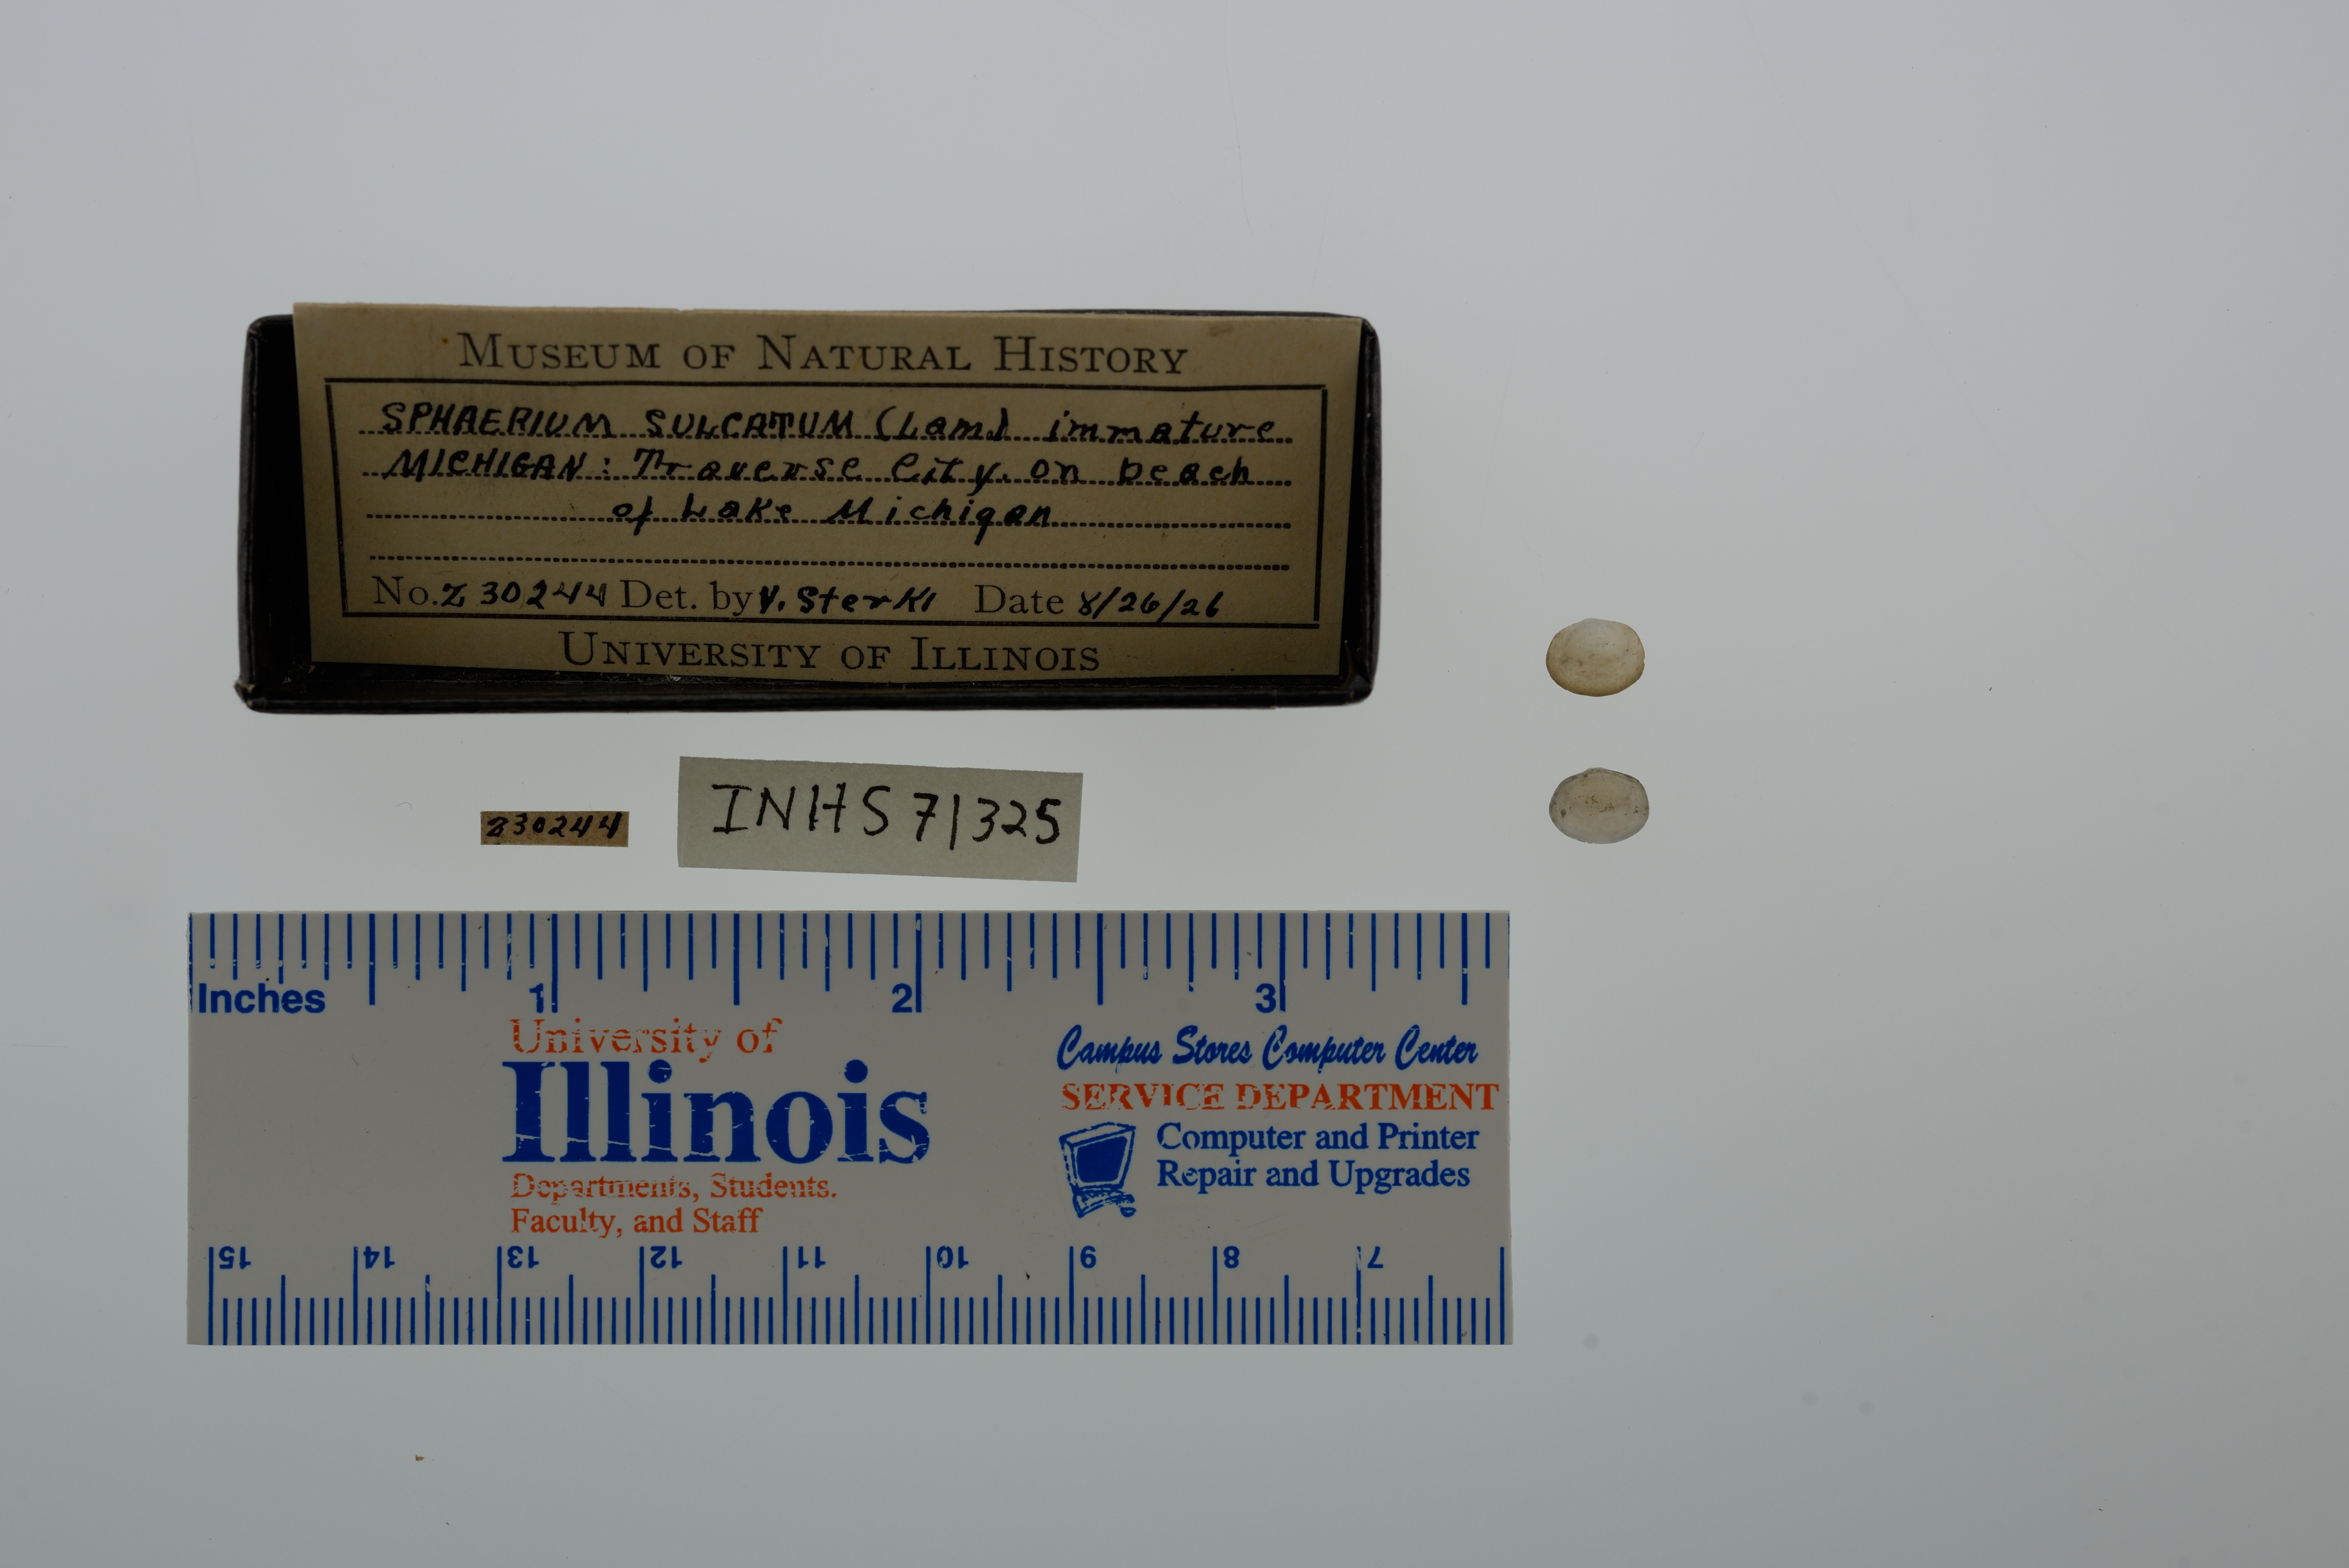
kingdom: Animalia
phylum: Mollusca
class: Bivalvia
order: Sphaeriida
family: Sphaeriidae
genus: Sphaerium
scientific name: Sphaerium simile
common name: Grooved fingernailclam
